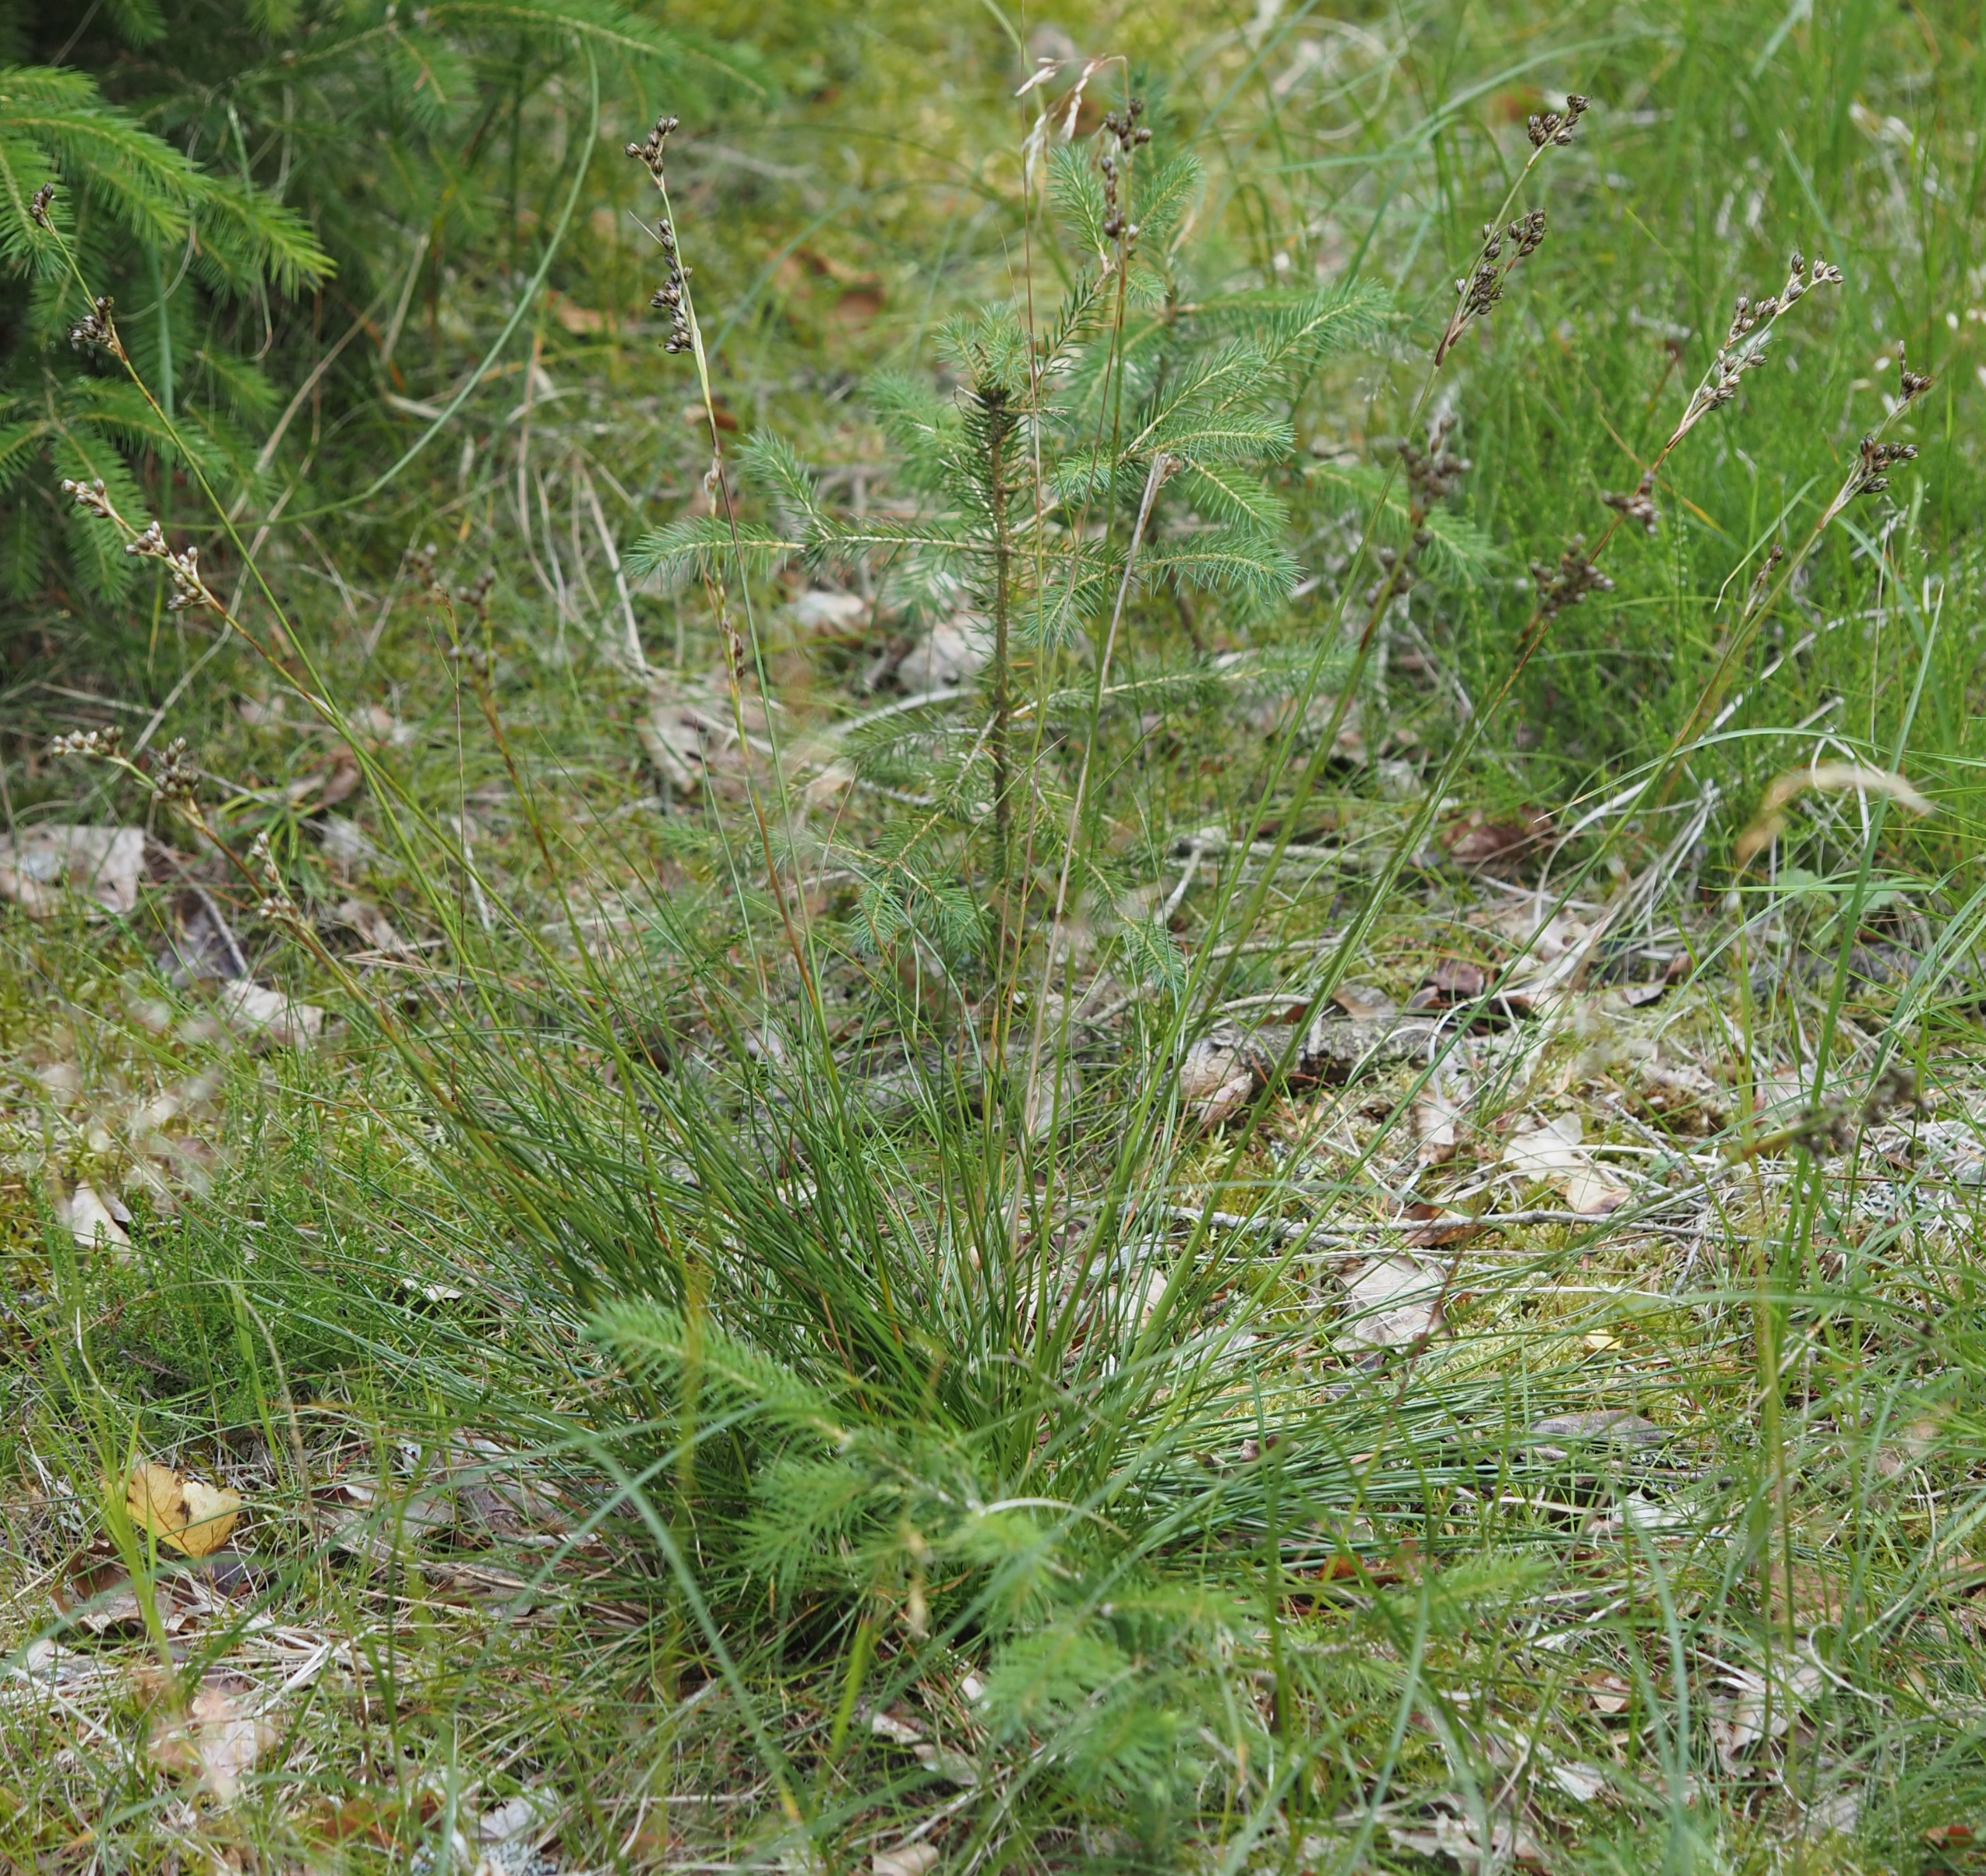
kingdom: Plantae
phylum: Tracheophyta
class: Liliopsida
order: Poales
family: Juncaceae
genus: Juncus
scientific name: Juncus squarrosus
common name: Børste-siv
